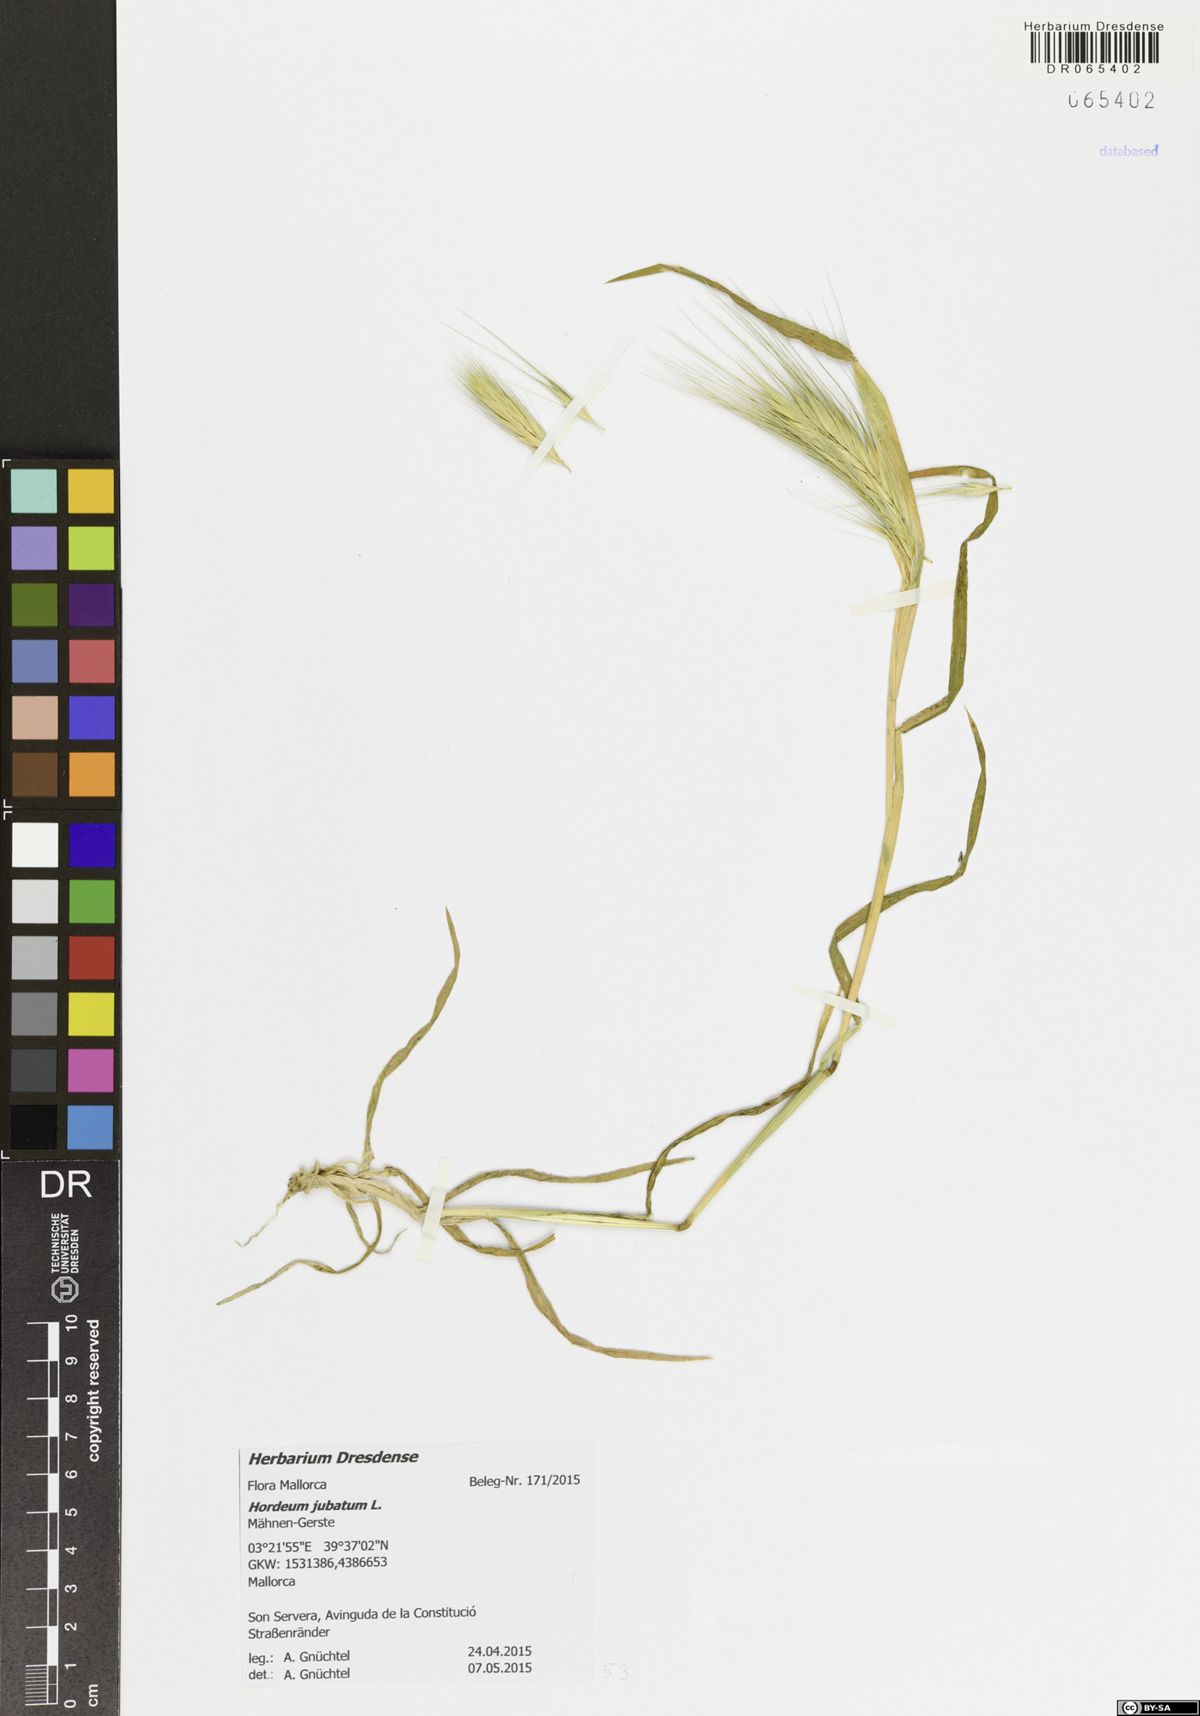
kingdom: Plantae
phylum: Tracheophyta
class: Liliopsida
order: Poales
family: Poaceae
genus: Hordeum
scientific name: Hordeum jubatum
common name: Foxtail barley
